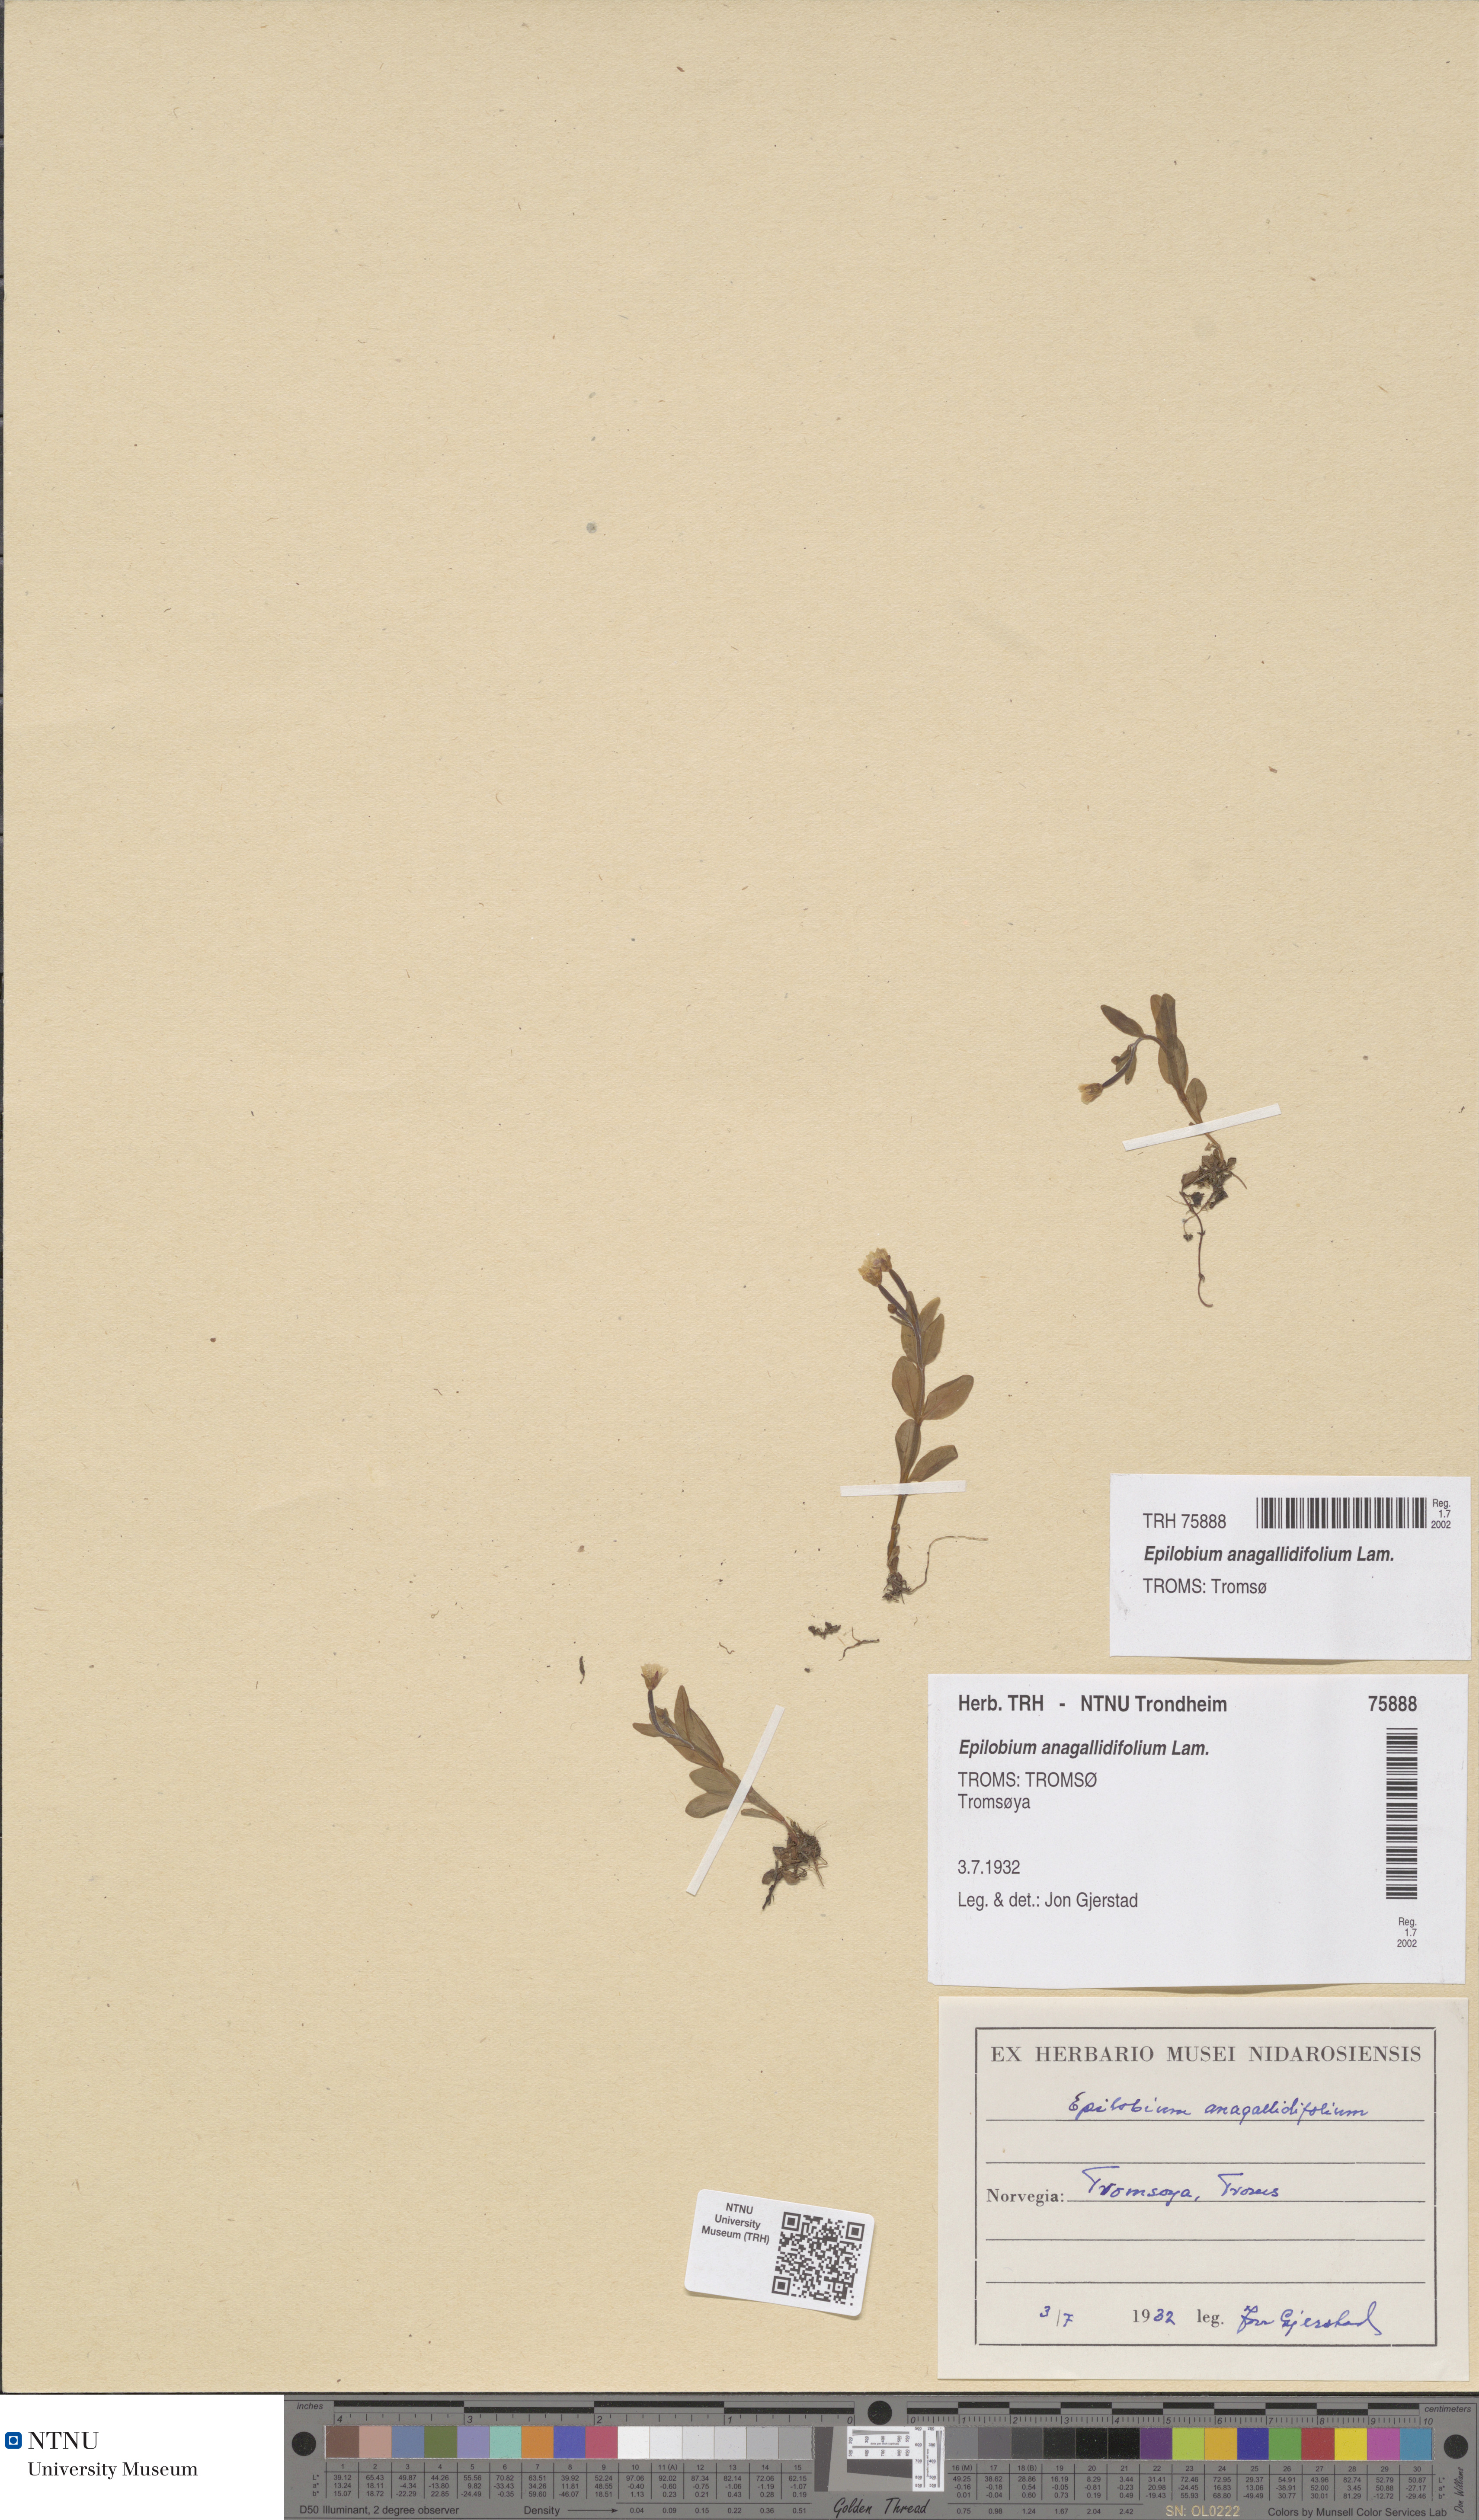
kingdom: Plantae
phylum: Tracheophyta
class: Magnoliopsida
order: Myrtales
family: Onagraceae
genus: Epilobium
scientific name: Epilobium anagallidifolium
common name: Alpine willowherb
